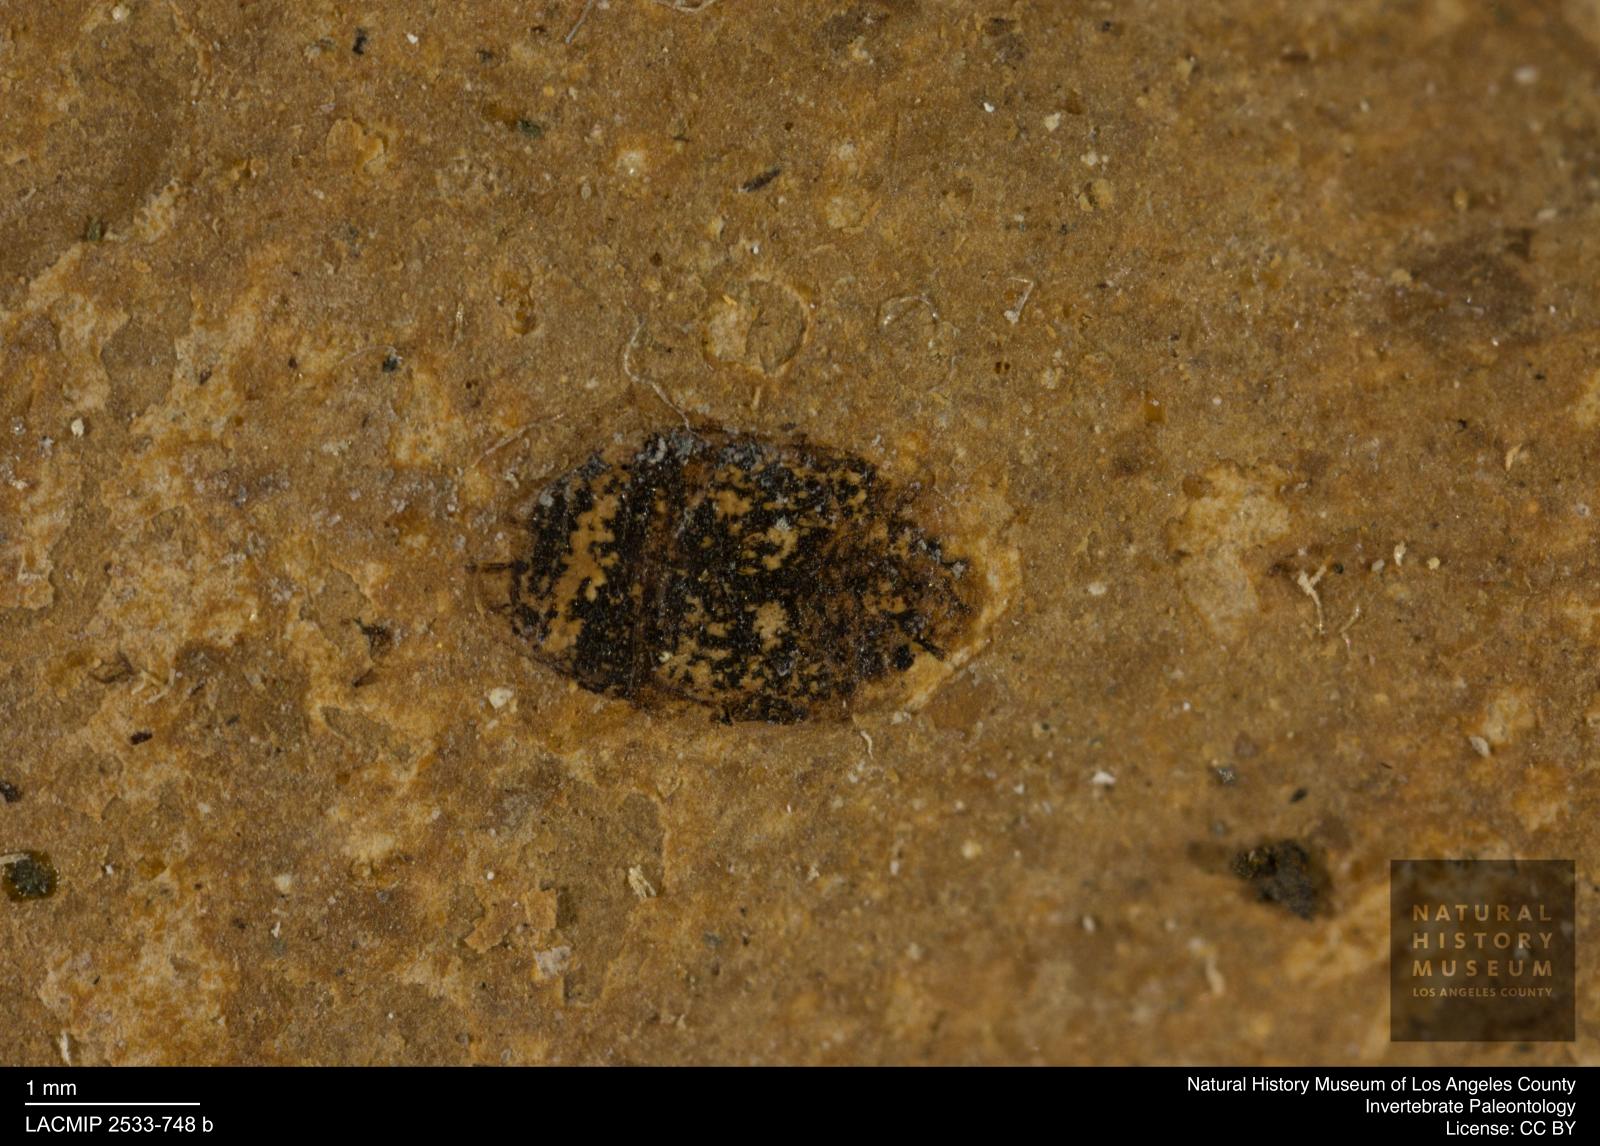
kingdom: Animalia
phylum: Arthropoda
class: Insecta
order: Coleoptera
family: Dytiscidae
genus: Oreodytes
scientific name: Oreodytes cryptolineatus
